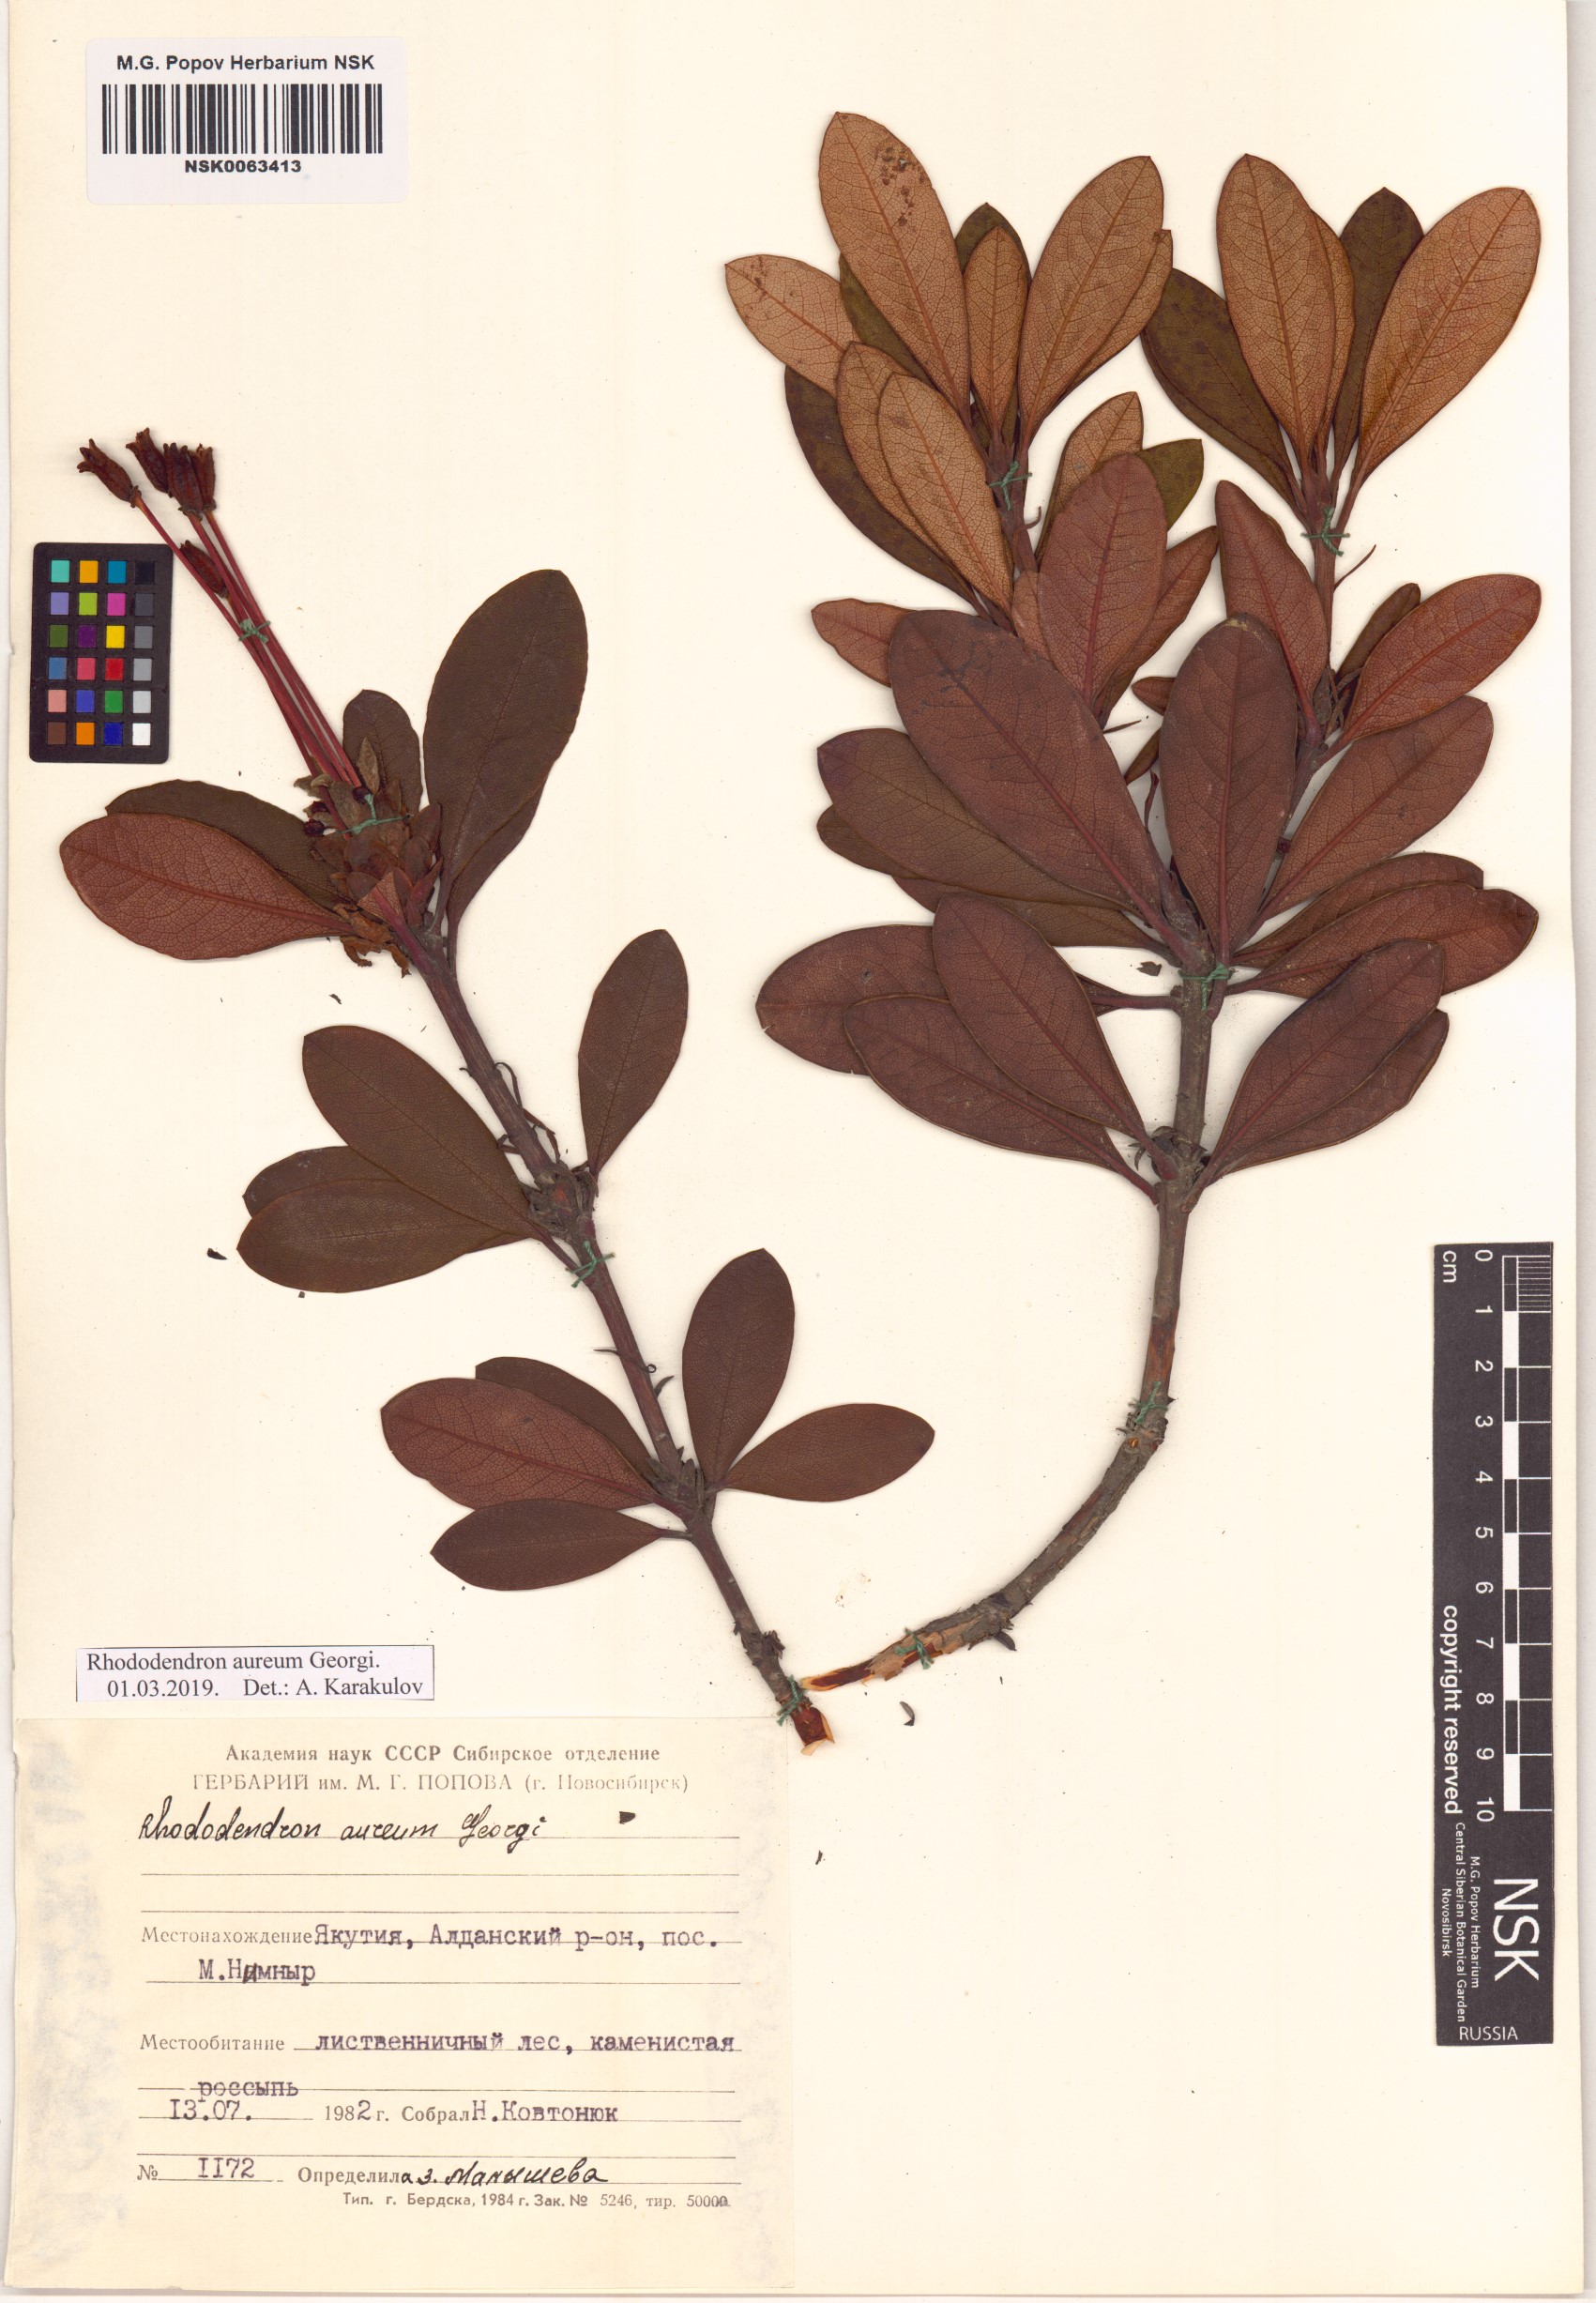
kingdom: Plantae
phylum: Tracheophyta
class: Magnoliopsida
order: Ericales
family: Ericaceae
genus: Rhododendron
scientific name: Rhododendron aureum
